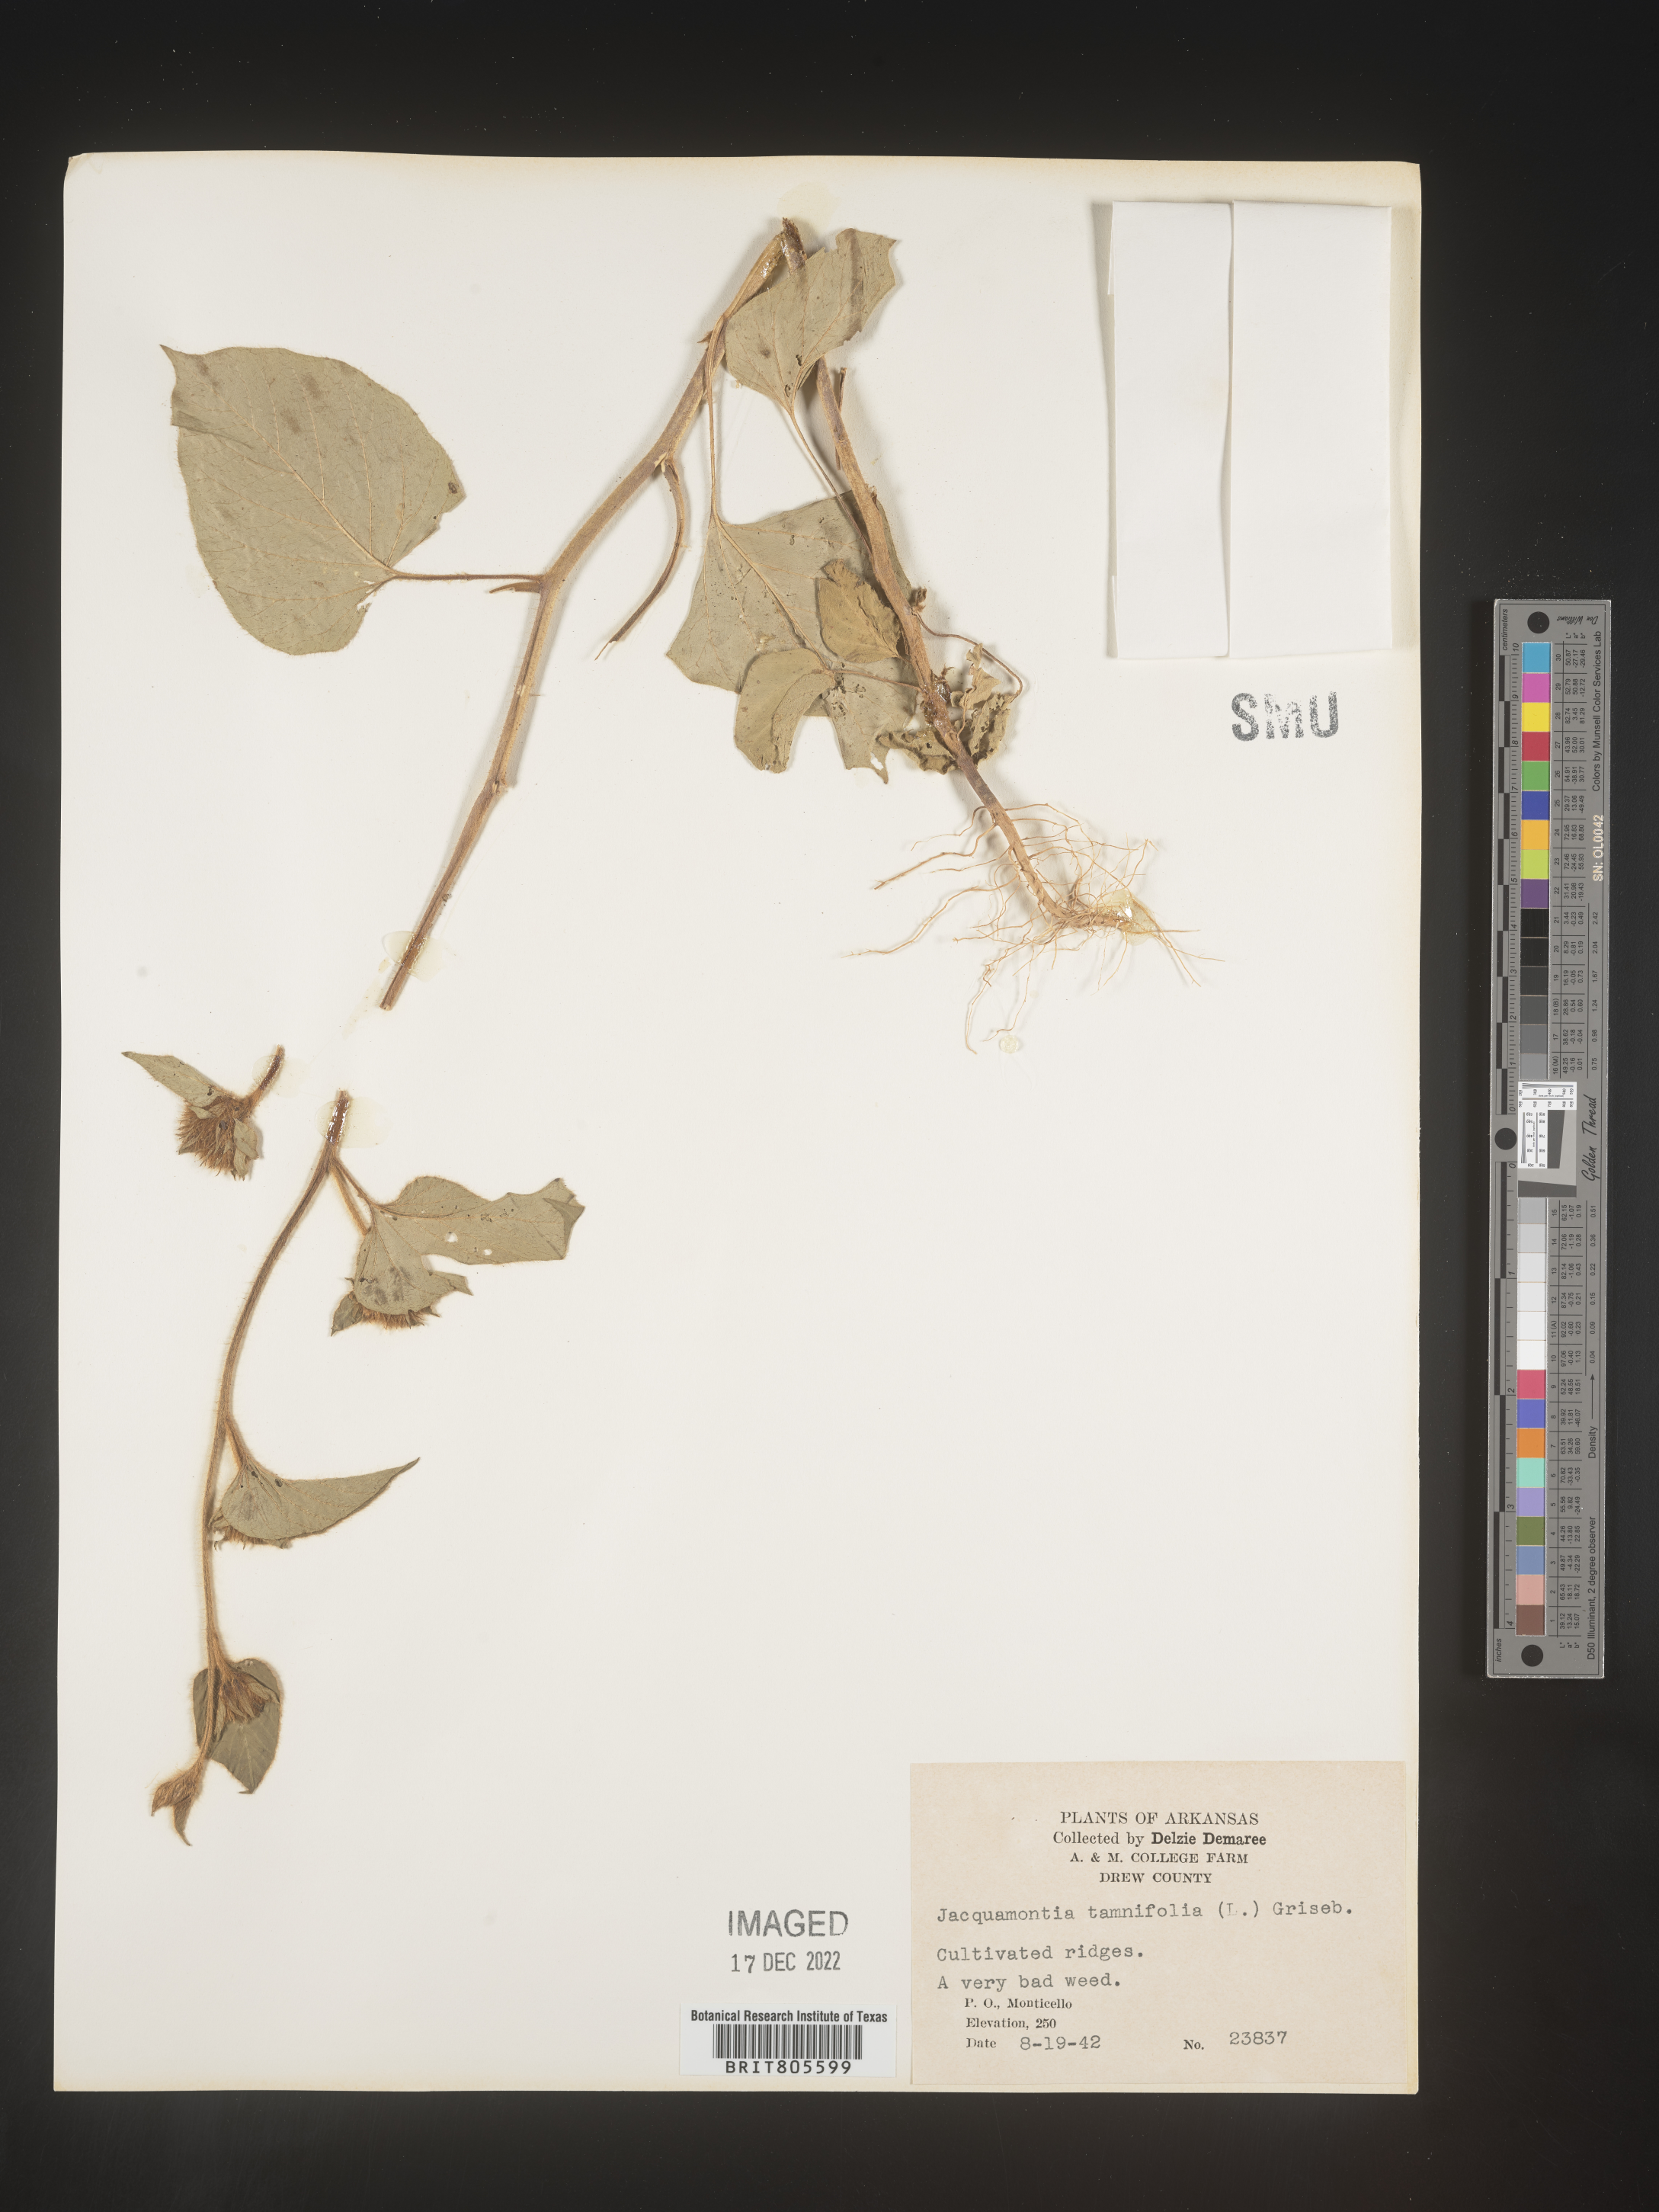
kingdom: Plantae
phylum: Tracheophyta
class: Magnoliopsida
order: Solanales
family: Convolvulaceae
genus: Jacquemontia
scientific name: Jacquemontia tamnifolia
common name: Hairy clustervine
